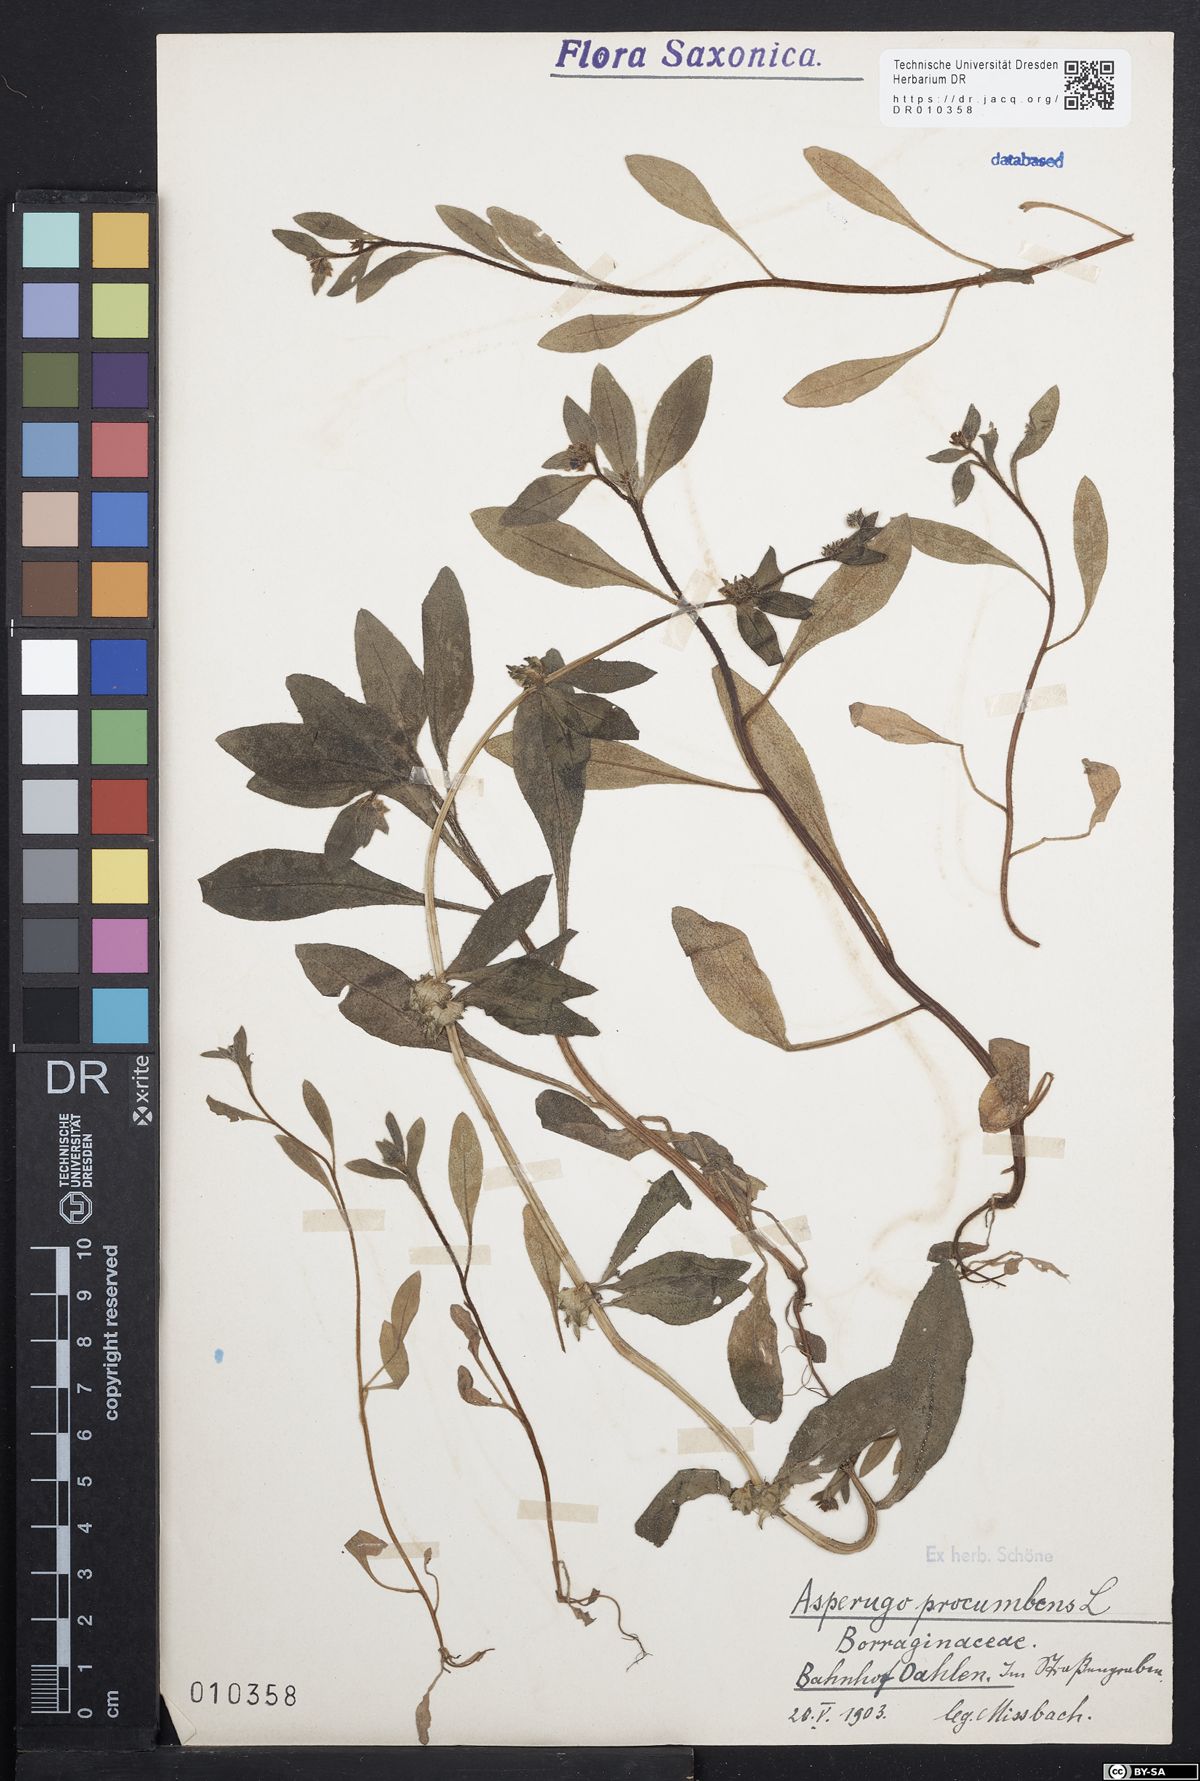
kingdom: Plantae
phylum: Tracheophyta
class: Magnoliopsida
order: Boraginales
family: Boraginaceae
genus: Asperugo
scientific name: Asperugo procumbens
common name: Madwort
